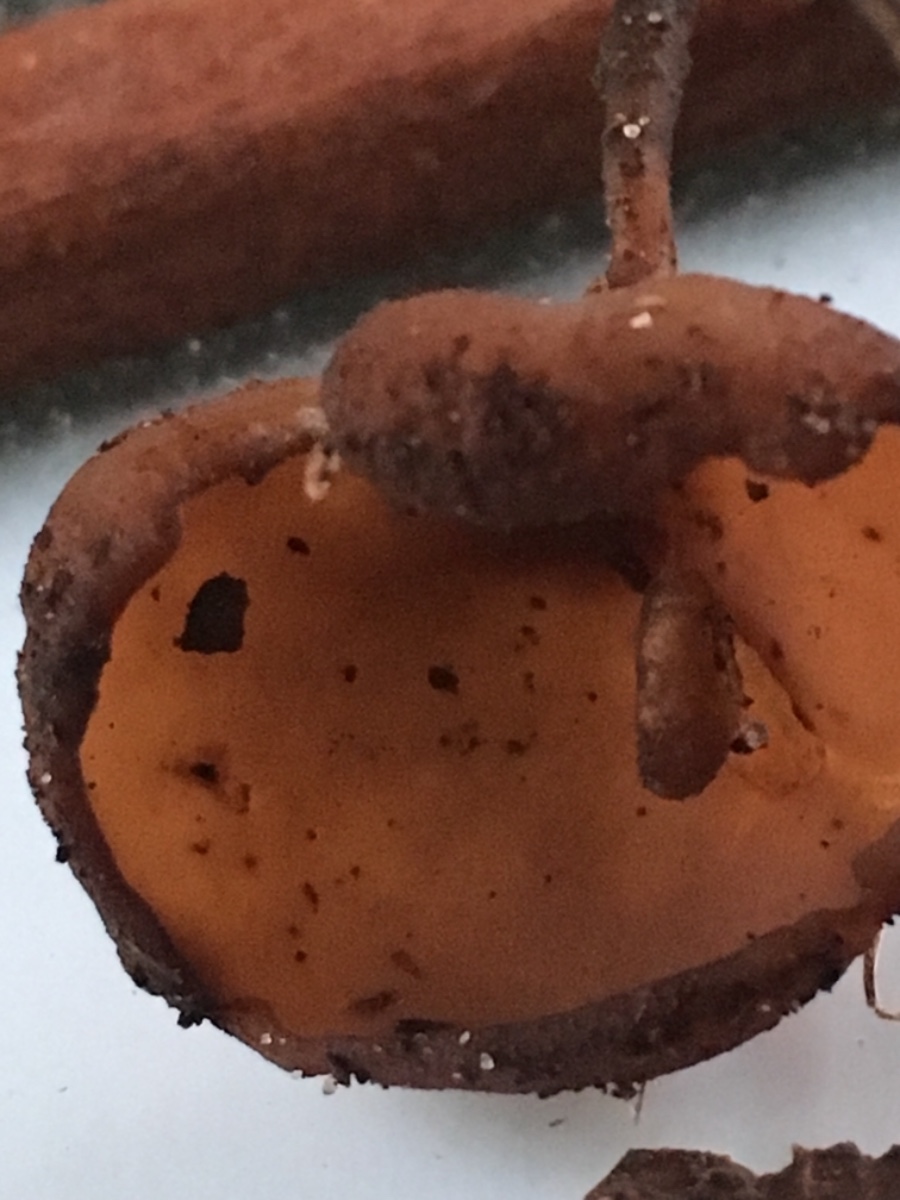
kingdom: Fungi
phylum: Ascomycota
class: Leotiomycetes
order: Helotiales
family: Sclerotiniaceae
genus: Dumontinia
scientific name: Dumontinia tuberosa
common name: anemone-knoldskive
